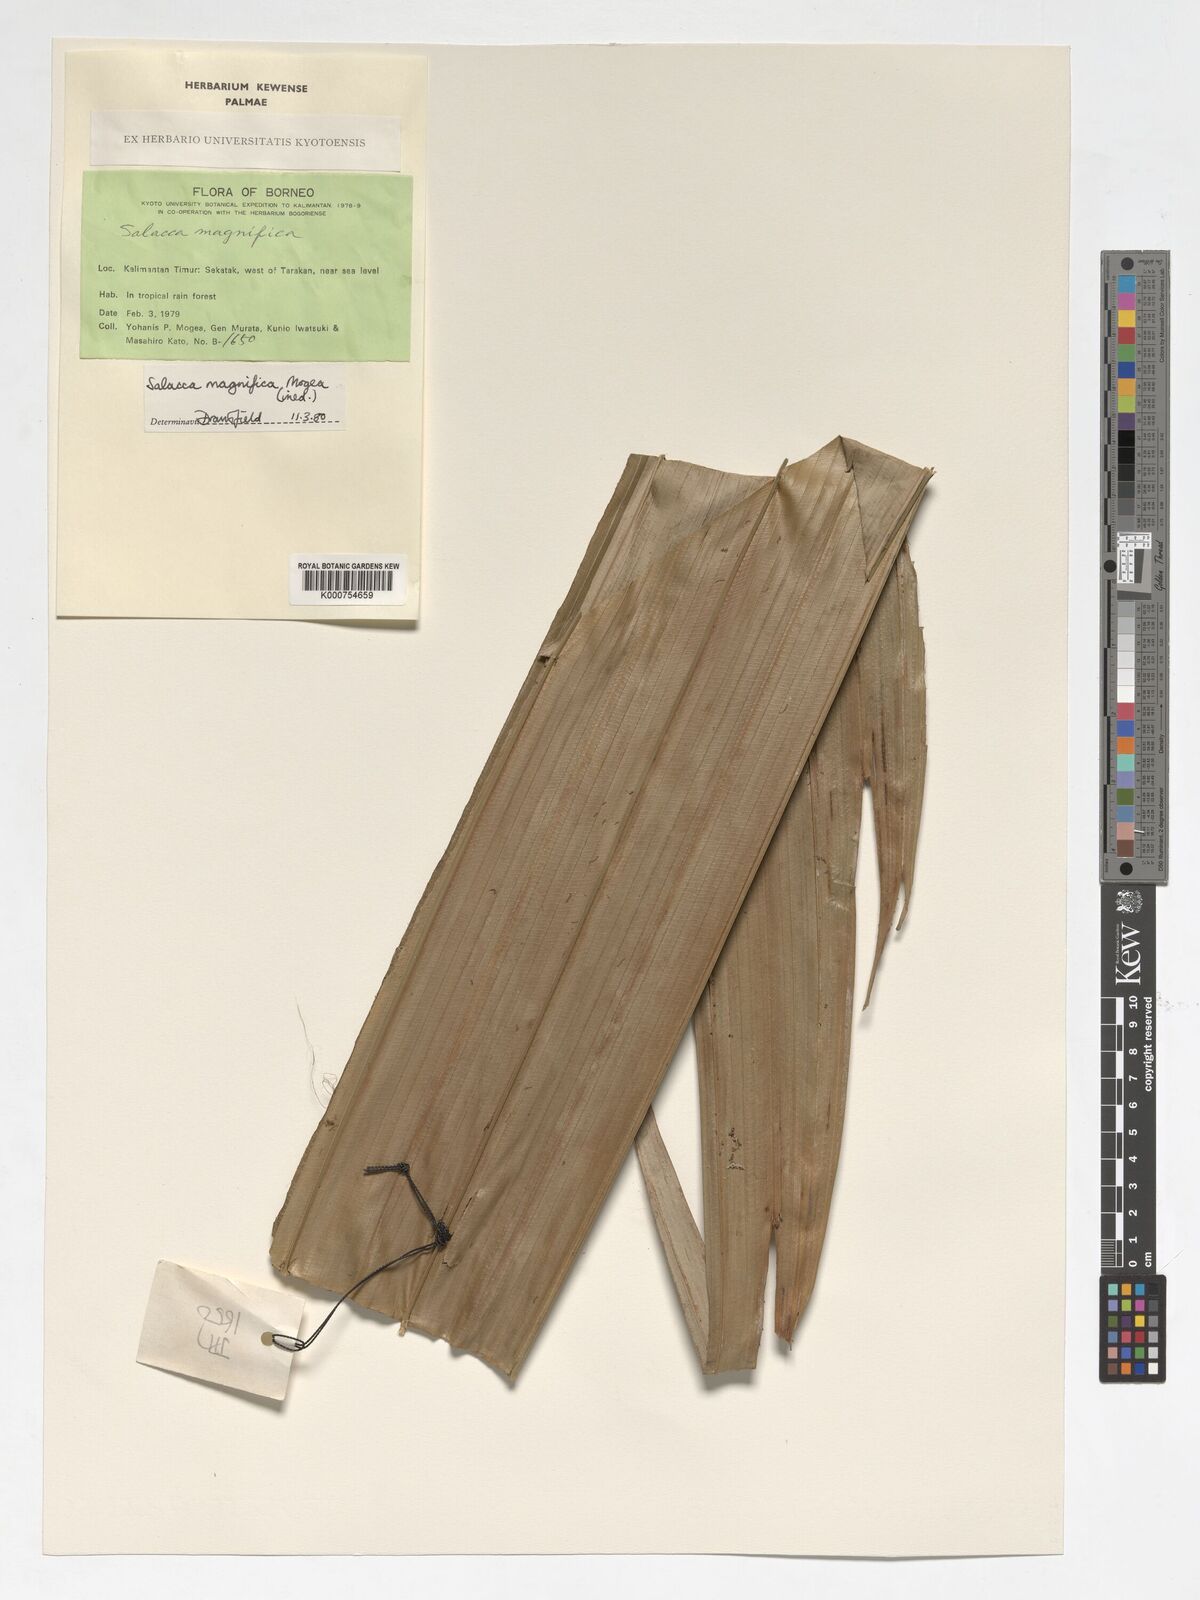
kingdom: Plantae
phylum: Tracheophyta
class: Liliopsida
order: Arecales
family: Arecaceae
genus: Salacca
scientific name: Salacca magnifica
